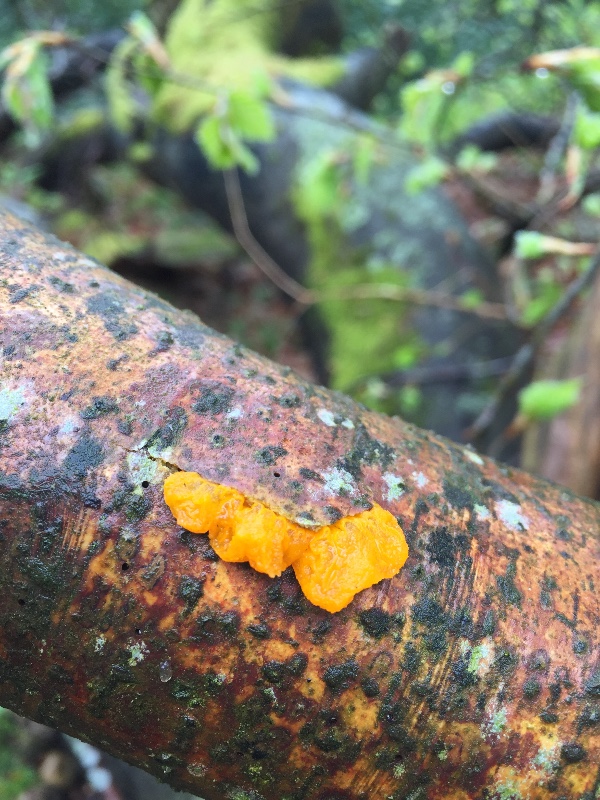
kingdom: Fungi
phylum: Basidiomycota
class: Tremellomycetes
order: Tremellales
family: Tremellaceae
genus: Tremella
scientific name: Tremella mesenterica
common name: gul bævresvamp
